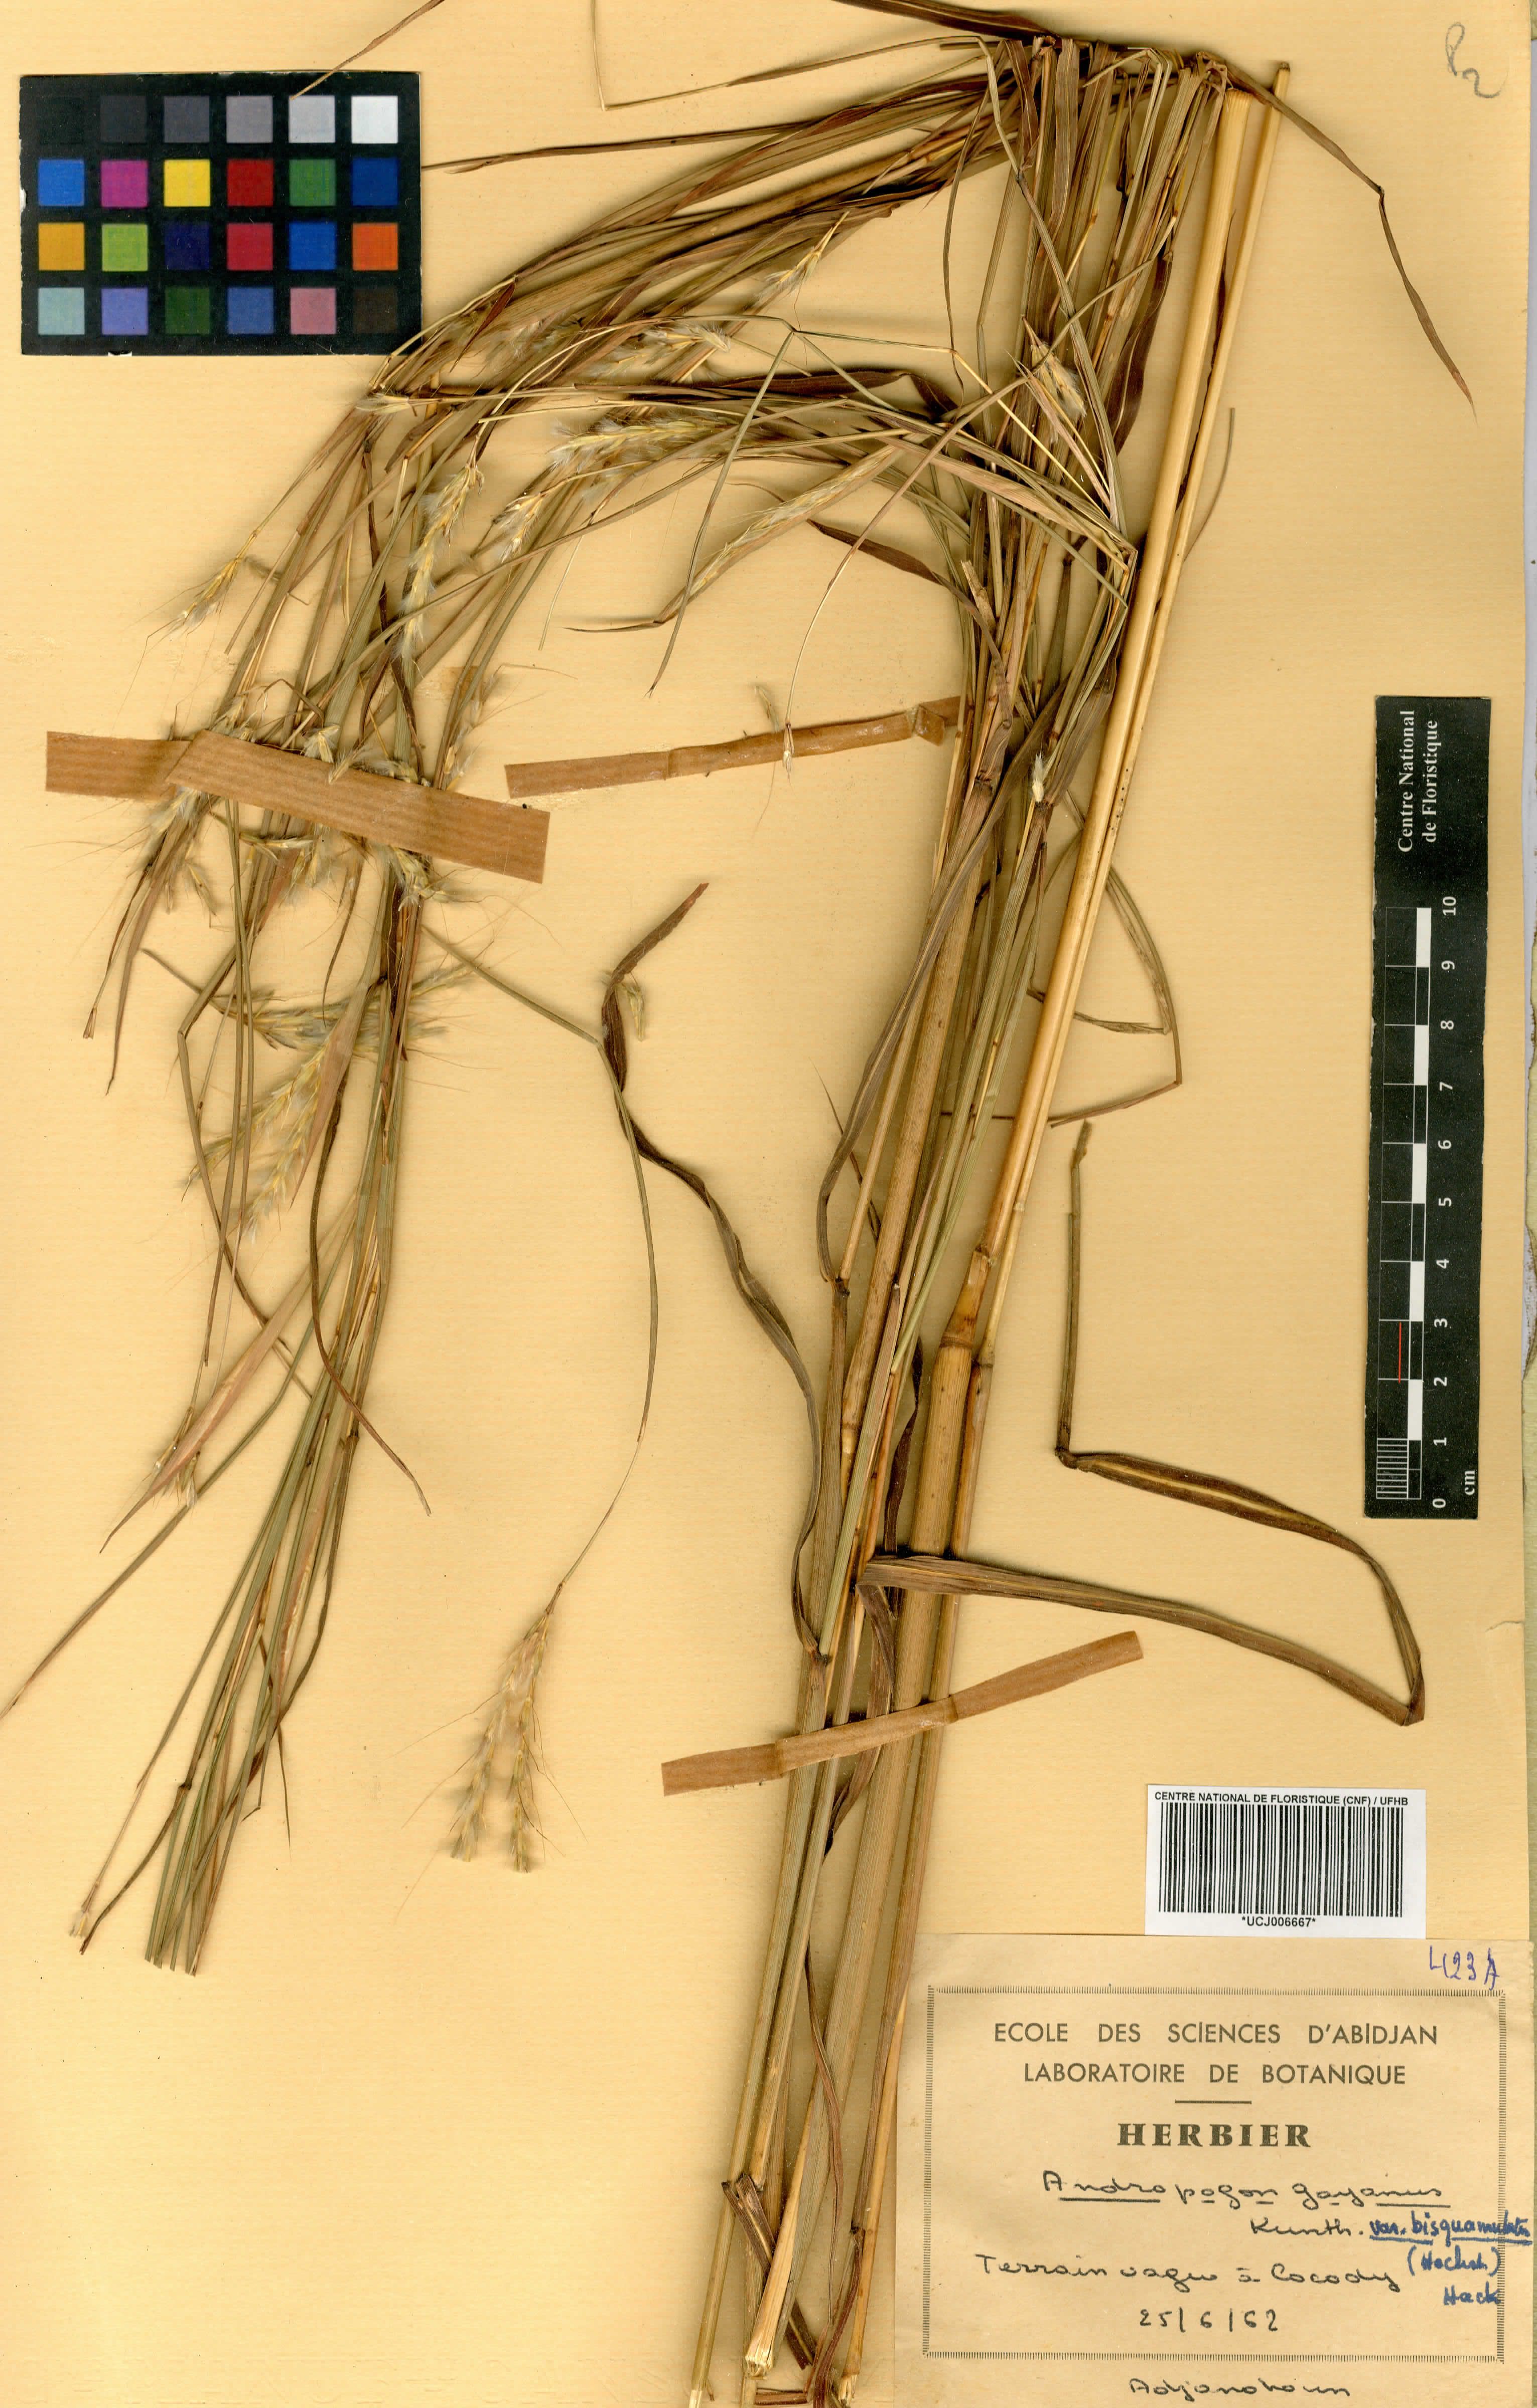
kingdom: Plantae
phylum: Tracheophyta
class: Liliopsida
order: Poales
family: Poaceae
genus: Andropogon
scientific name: Andropogon gayanus
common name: Tambuki grass
